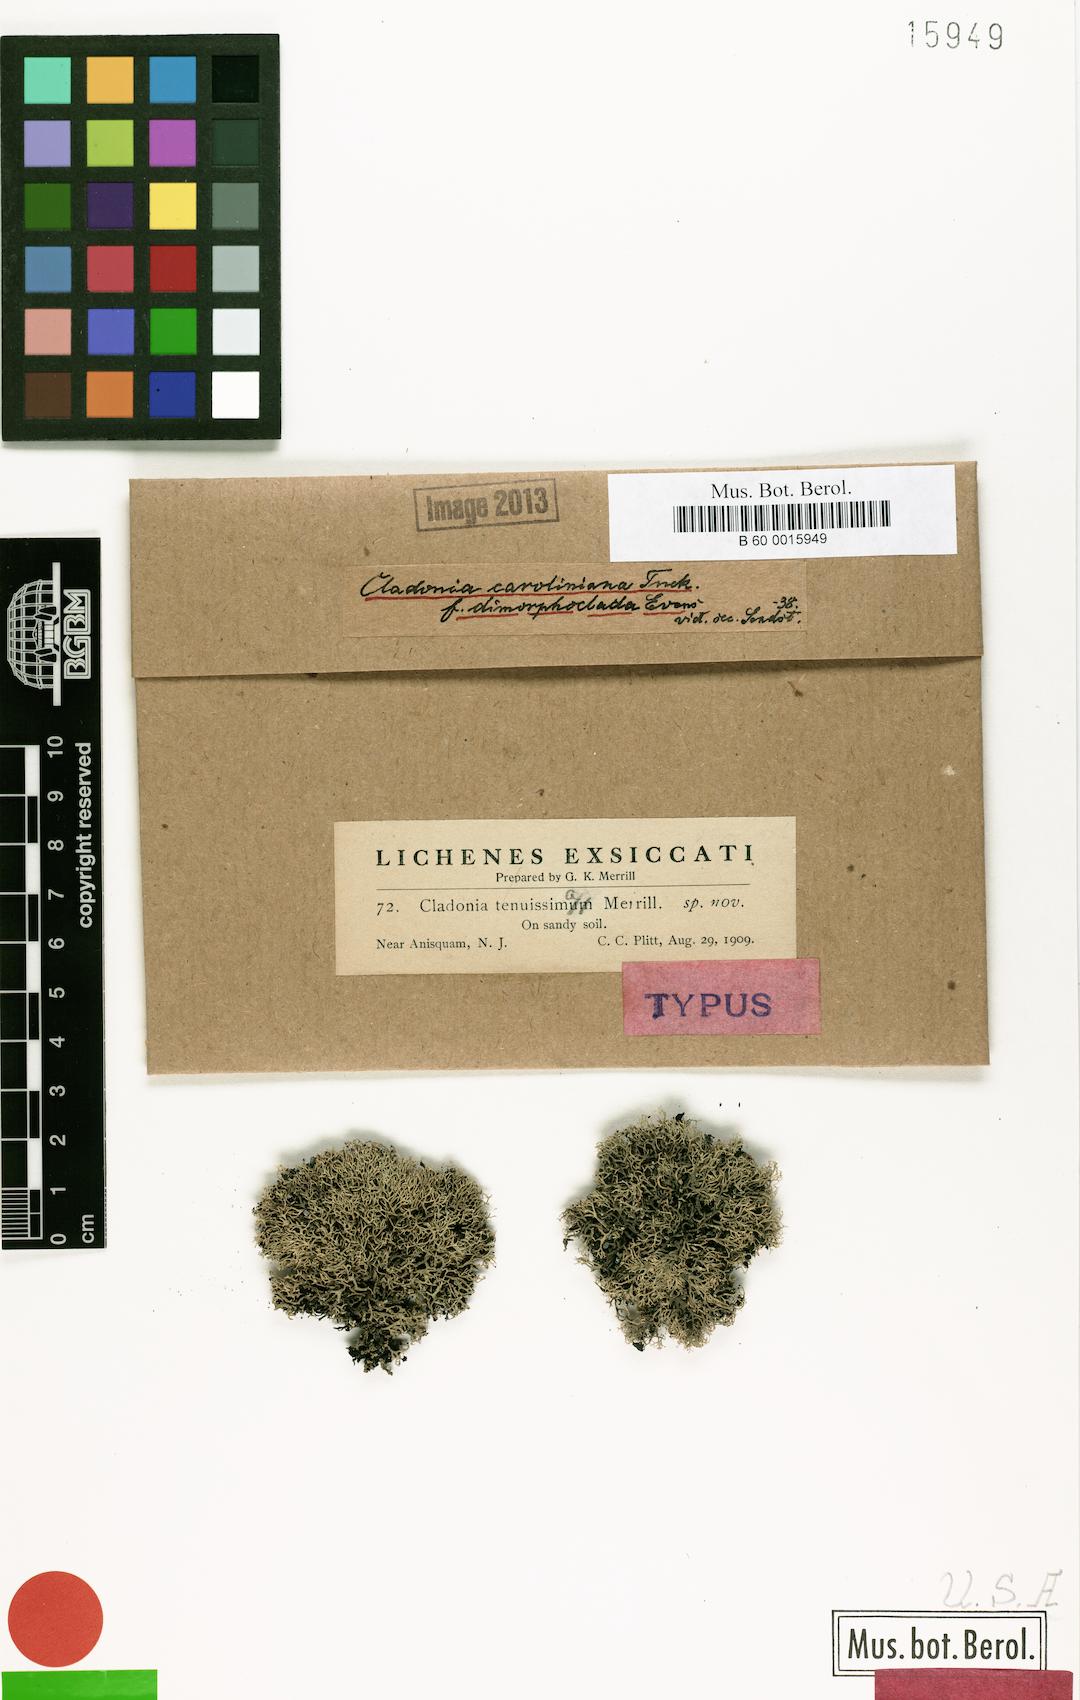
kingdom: Fungi
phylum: Ascomycota
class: Lecanoromycetes
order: Lecanorales
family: Cladoniaceae
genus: Cladonia
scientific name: Cladonia caroliniana
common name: Granite thorn
